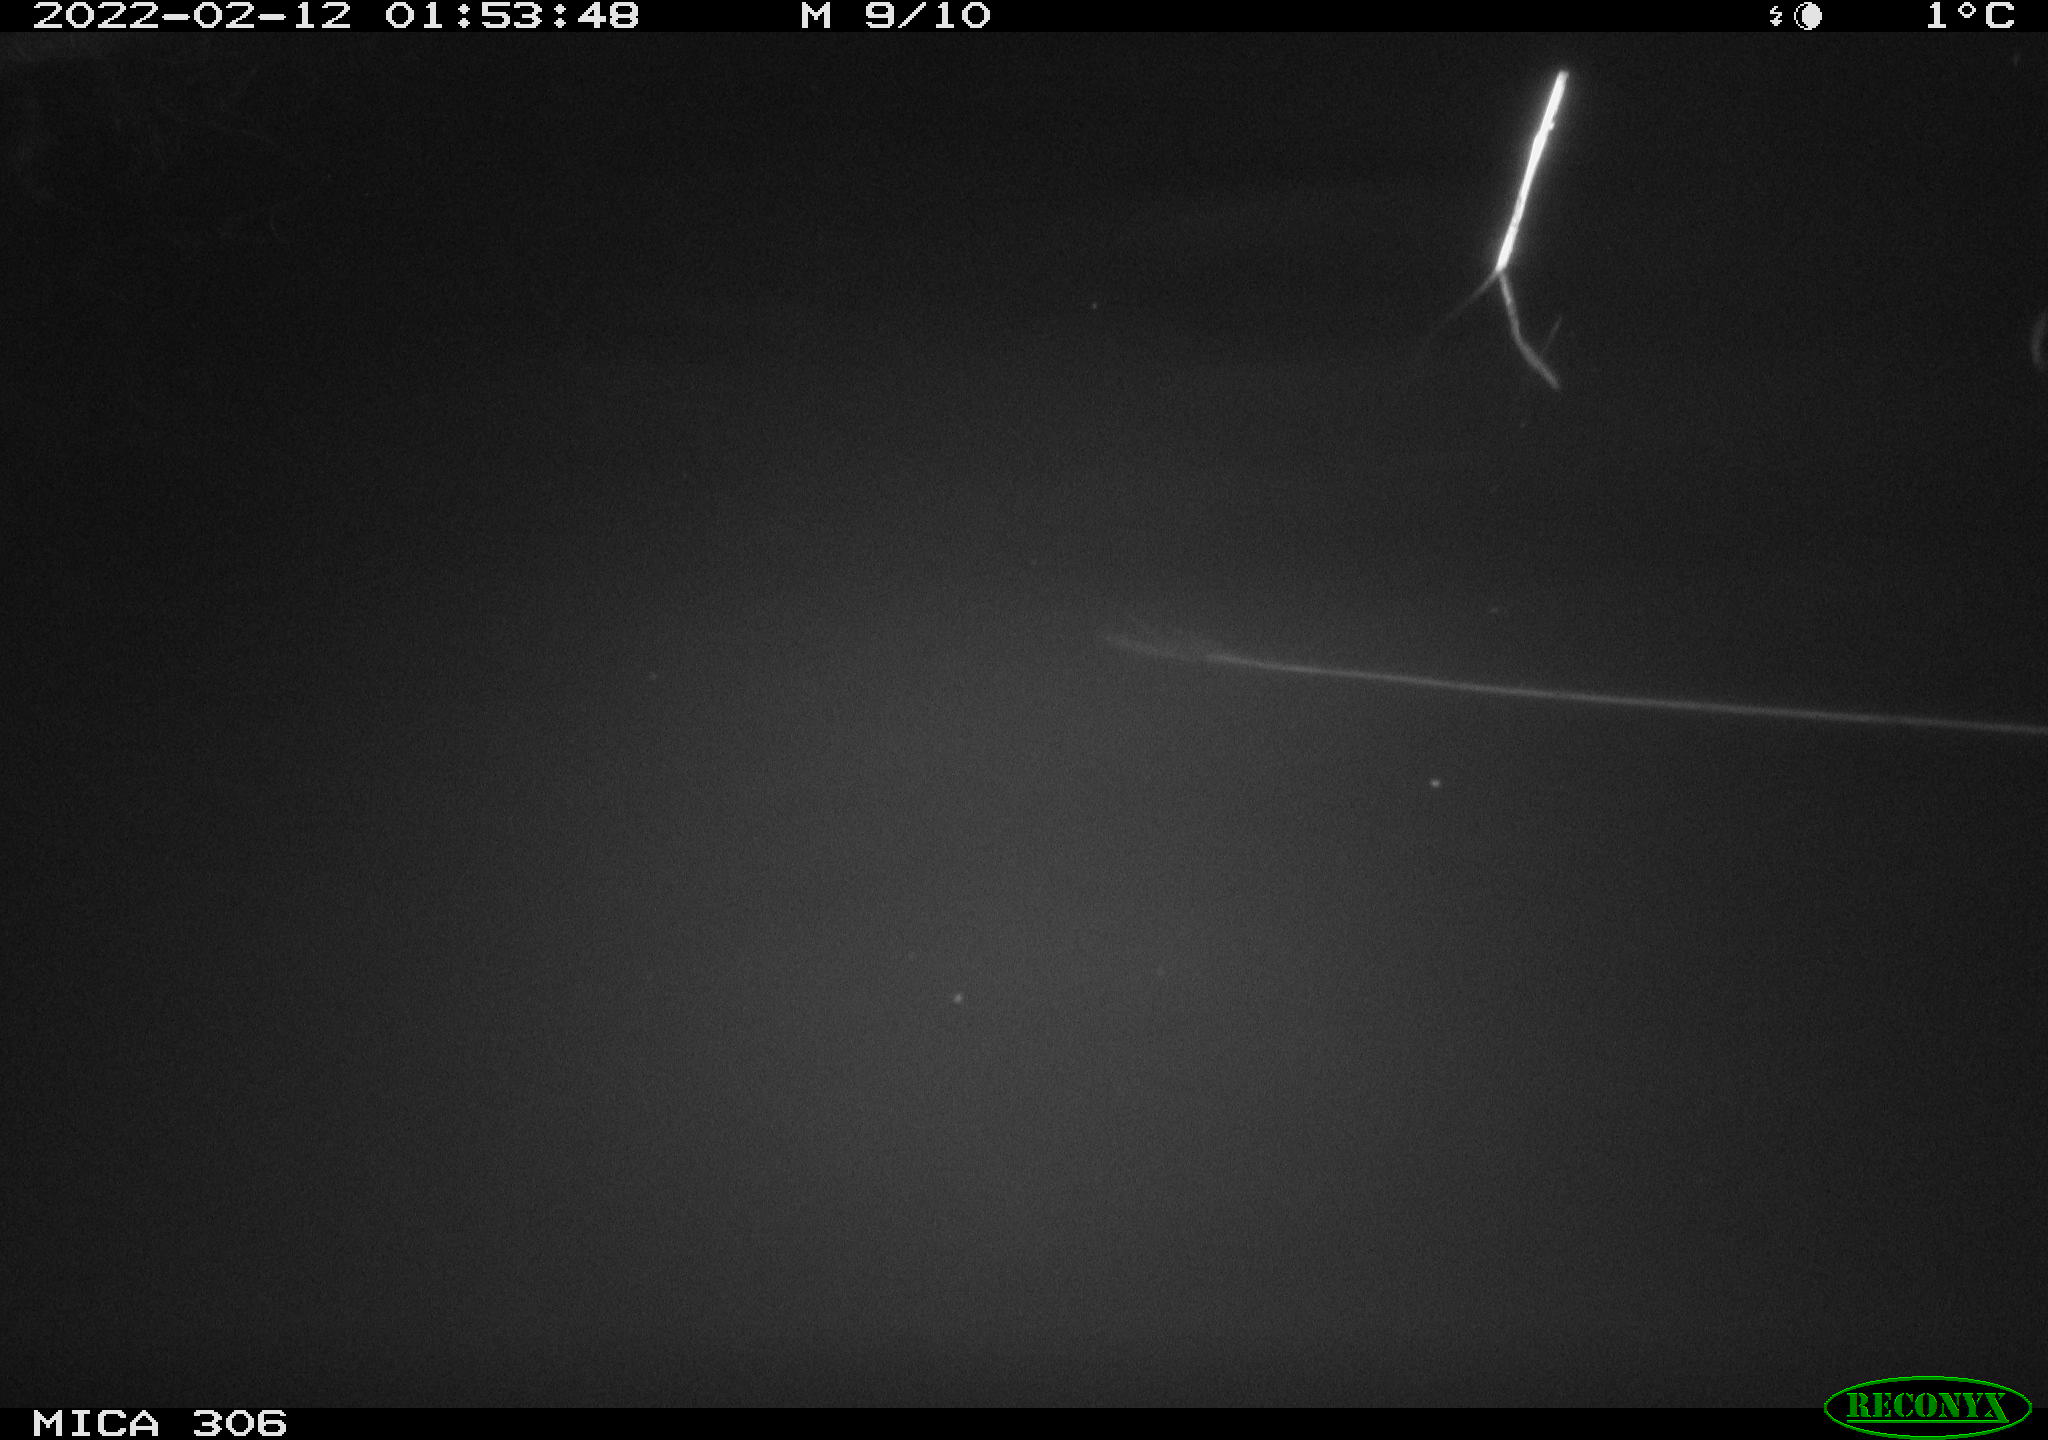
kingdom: Animalia
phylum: Chordata
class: Mammalia
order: Rodentia
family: Cricetidae
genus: Ondatra
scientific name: Ondatra zibethicus
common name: Muskrat
